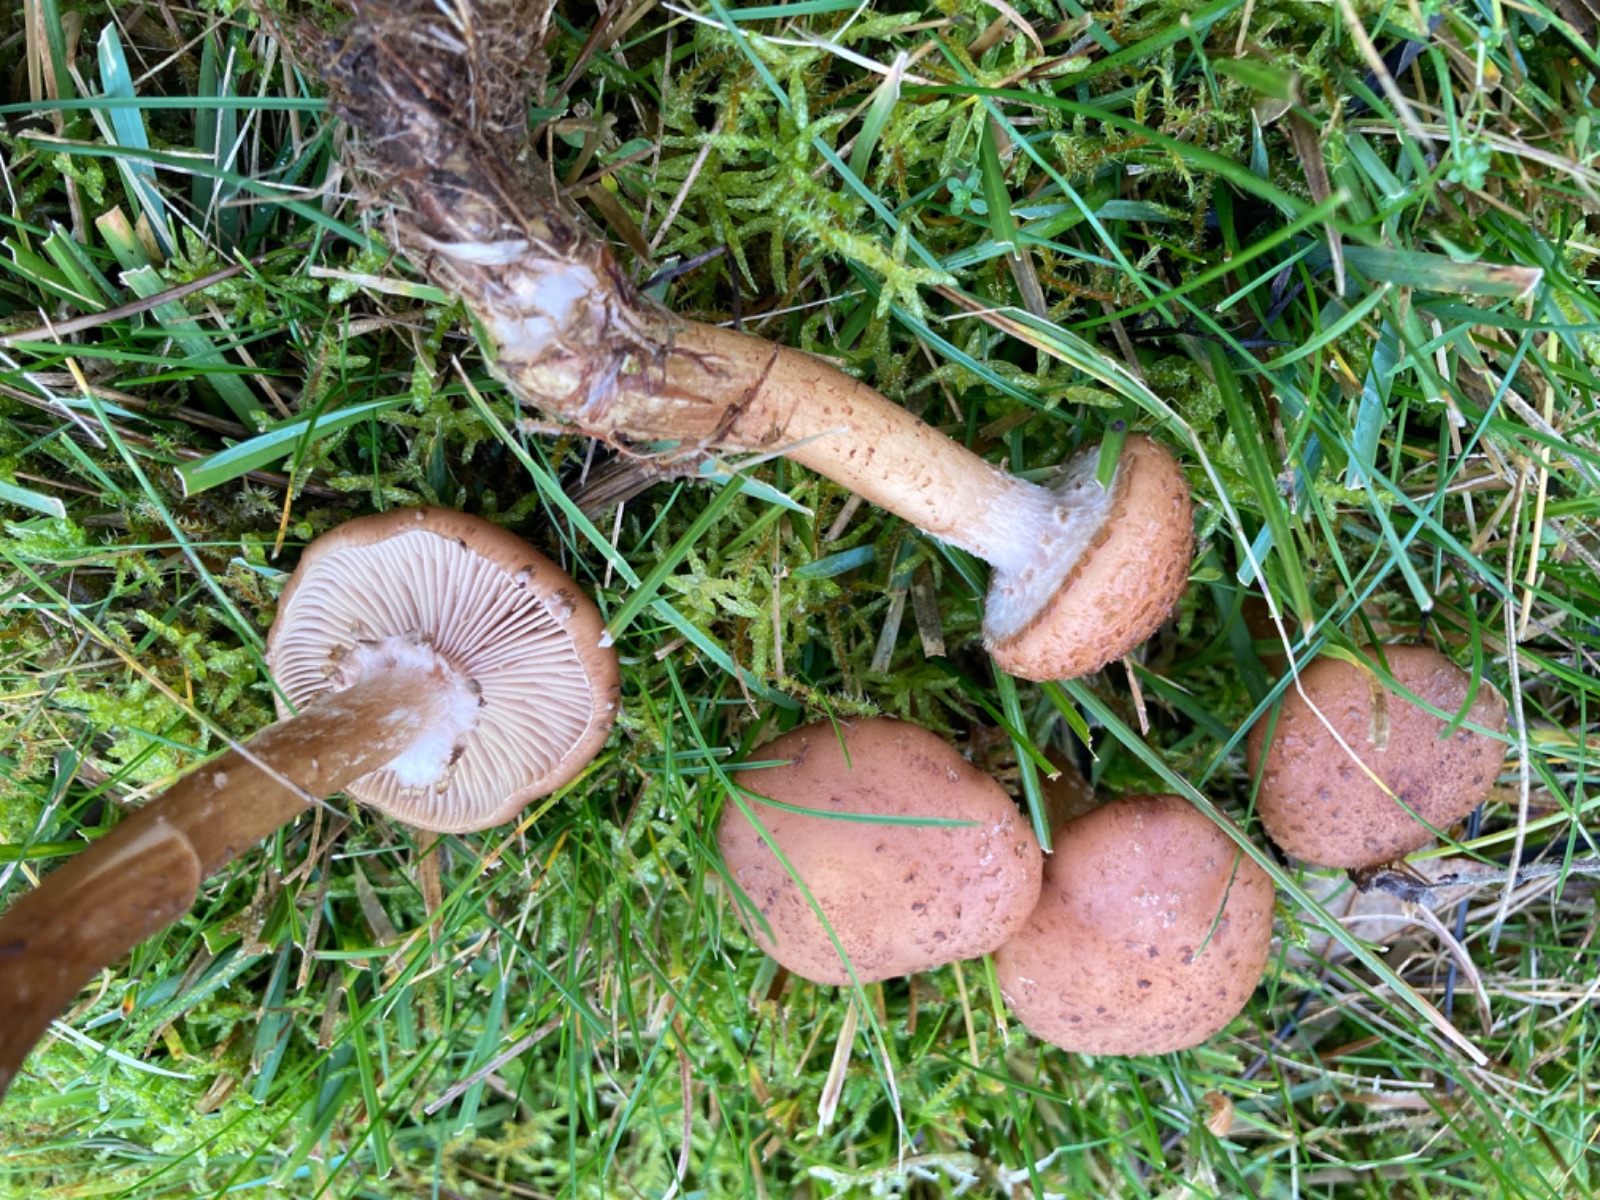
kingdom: Fungi
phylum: Basidiomycota
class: Agaricomycetes
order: Agaricales
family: Physalacriaceae
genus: Armillaria
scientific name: Armillaria ostoyae
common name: mørk honningsvamp
